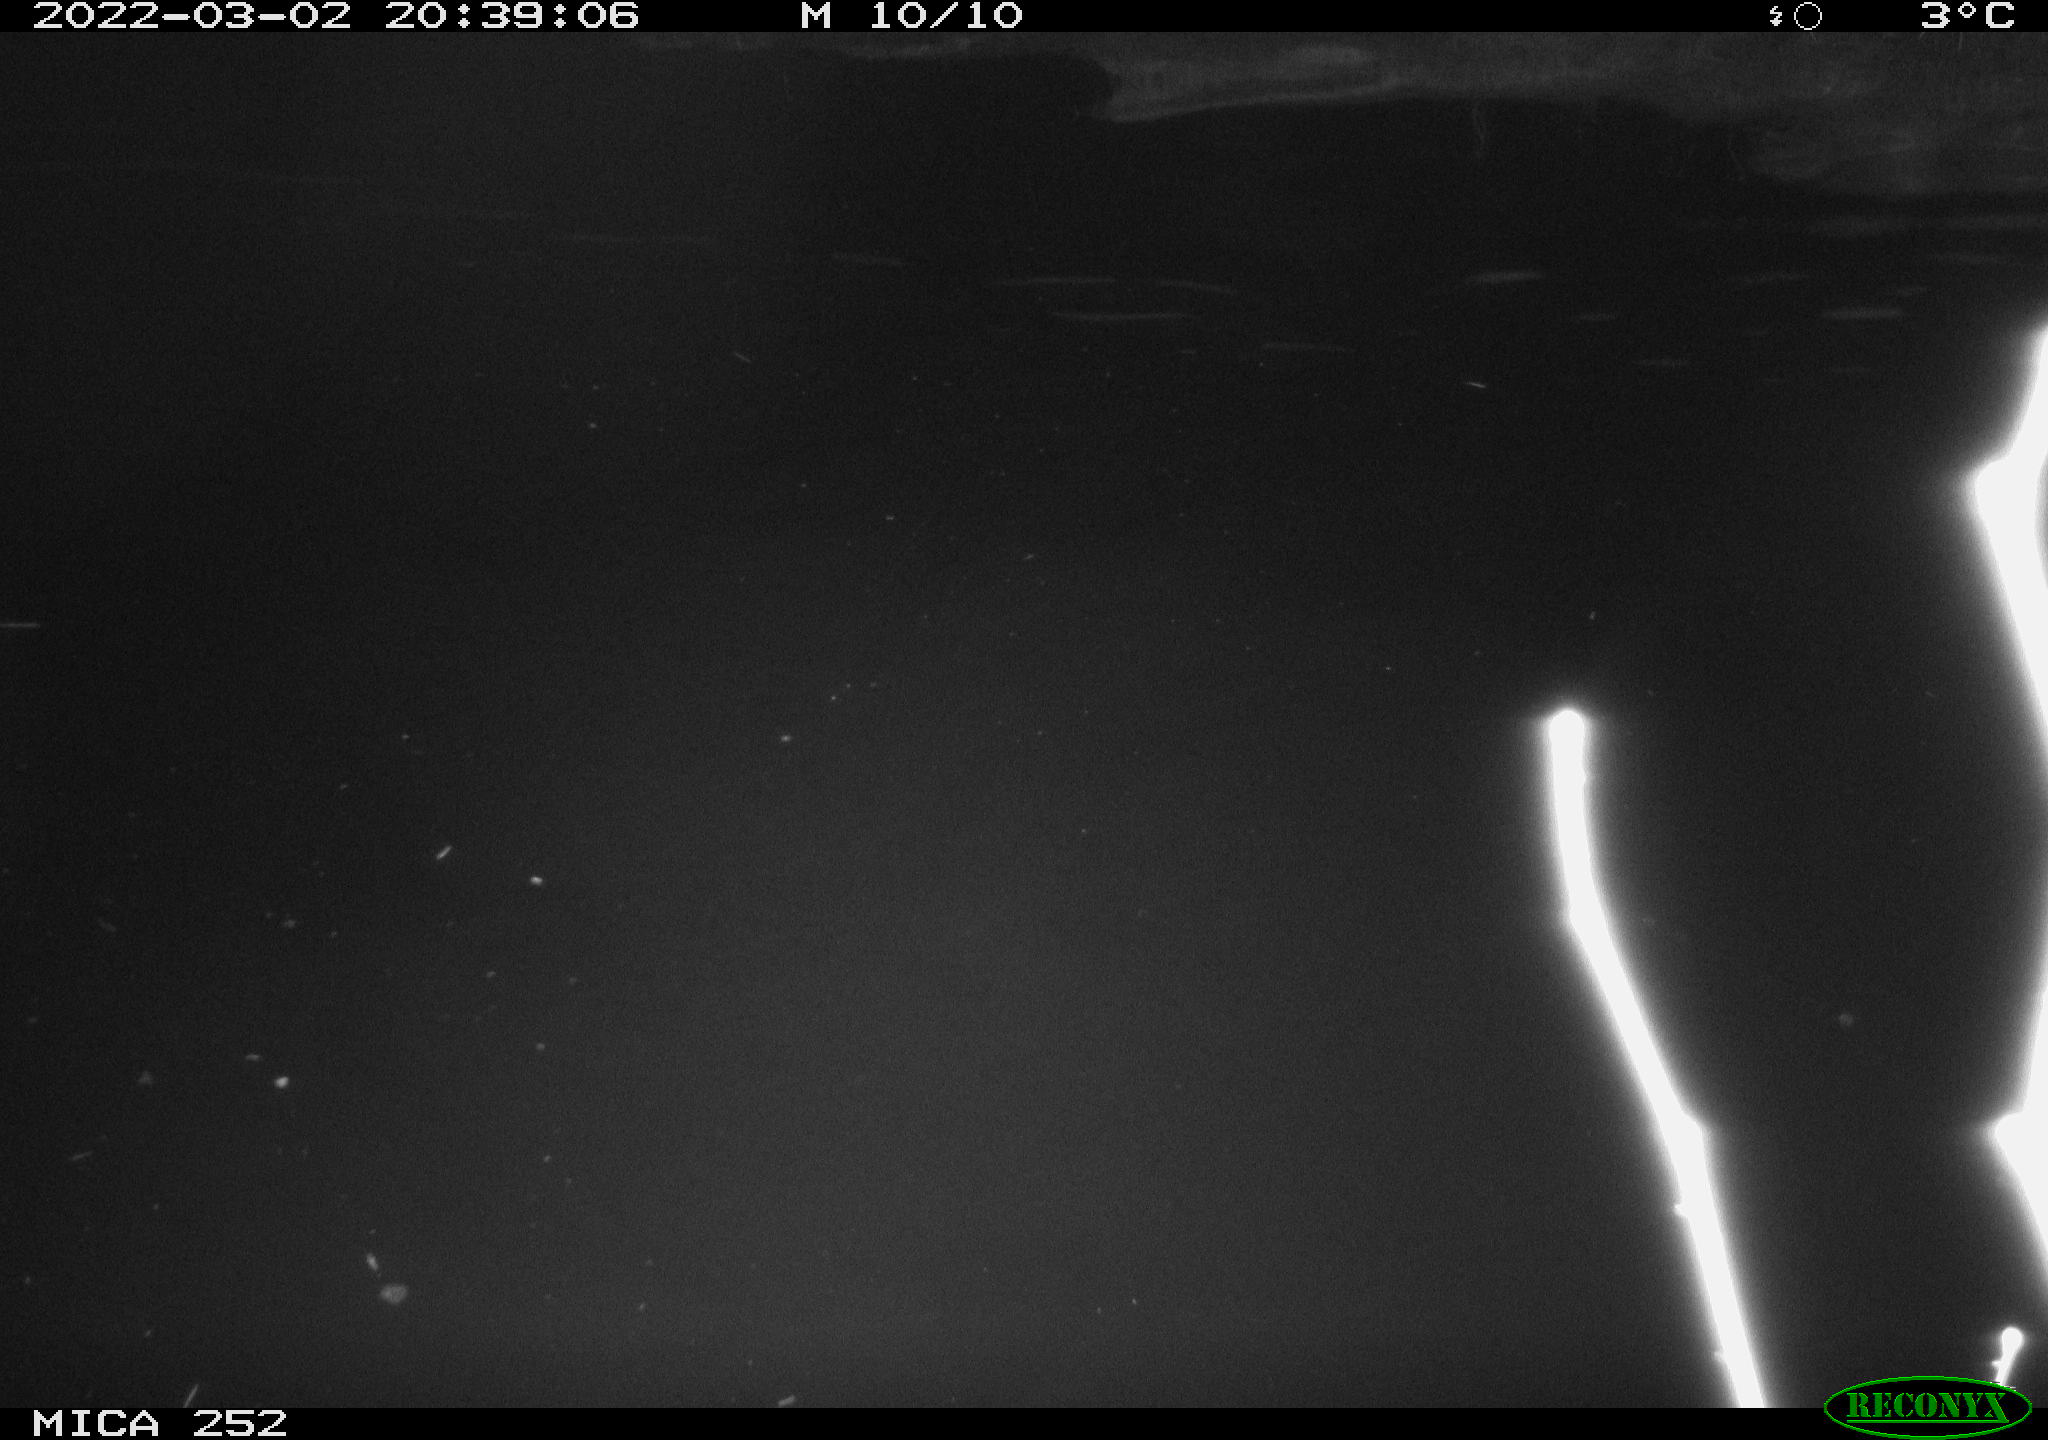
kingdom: Animalia
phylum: Chordata
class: Mammalia
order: Rodentia
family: Castoridae
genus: Castor
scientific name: Castor fiber
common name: Eurasian beaver
